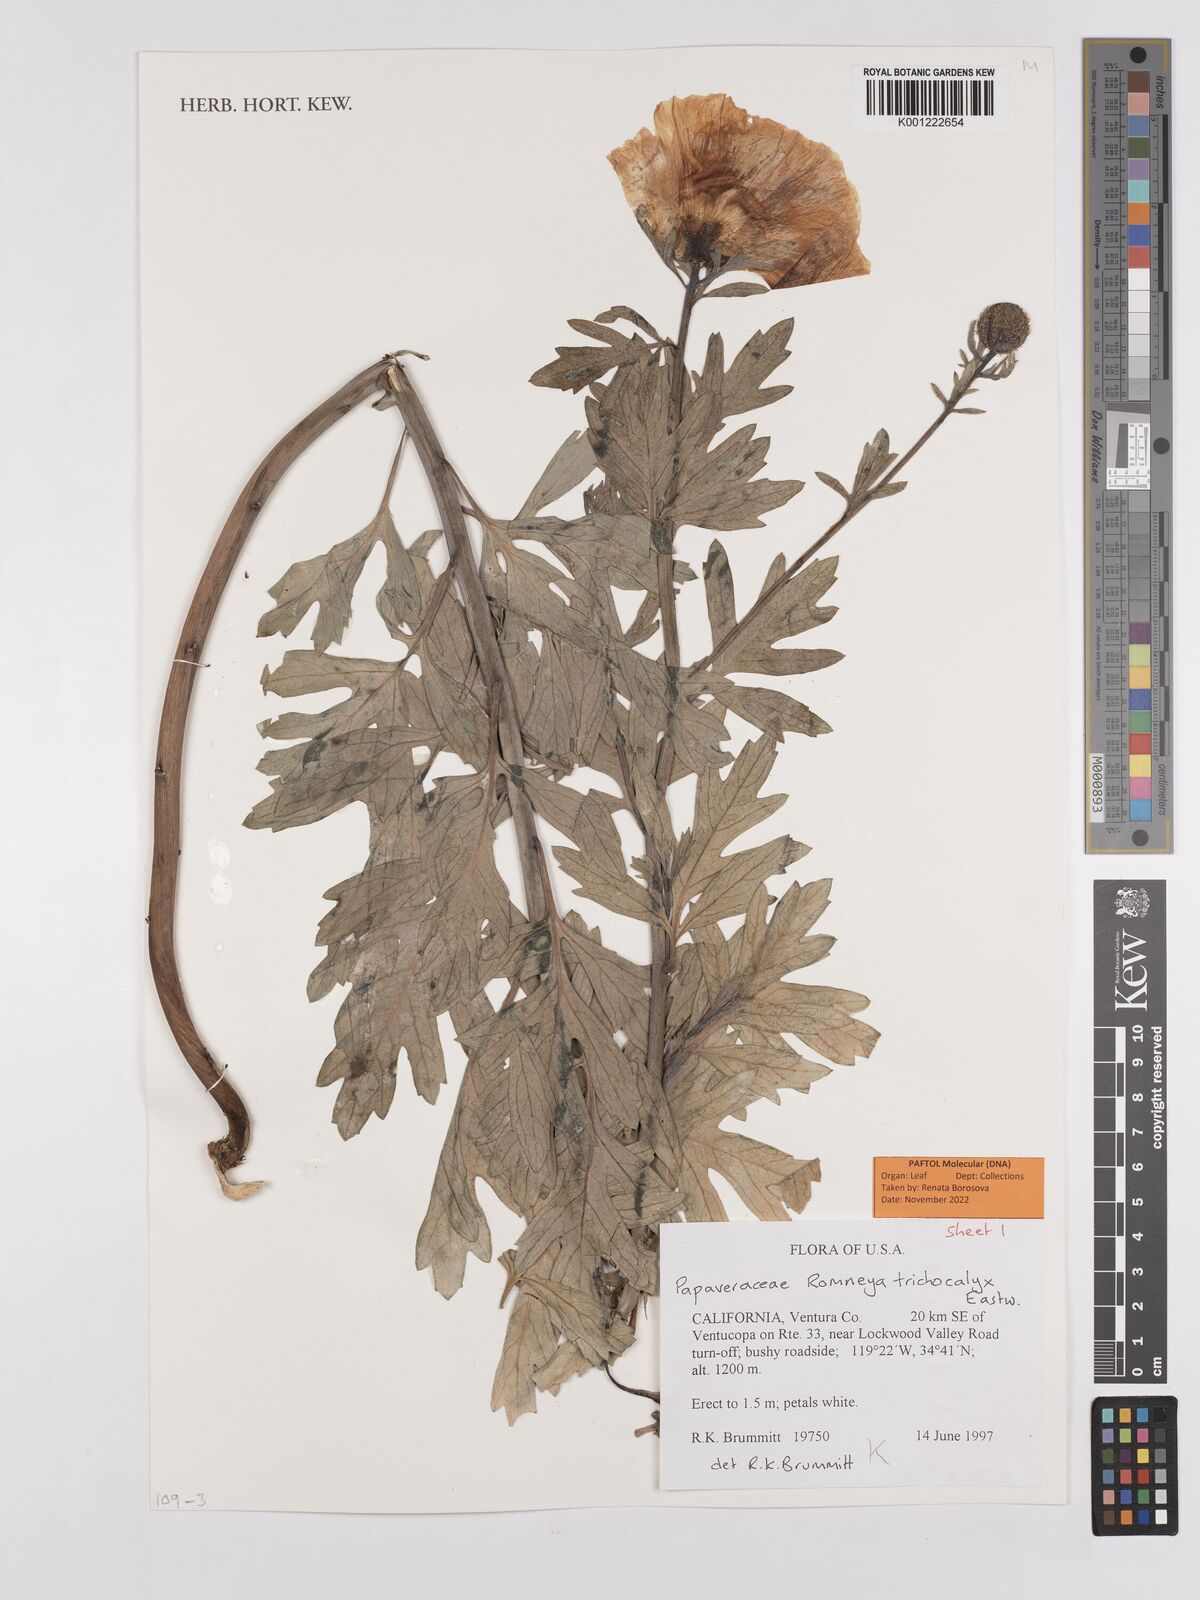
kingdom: Plantae
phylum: Tracheophyta
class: Magnoliopsida
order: Ranunculales
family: Papaveraceae
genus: Romneya
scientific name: Romneya trichocalyx
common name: Hairy matilija-poppy
